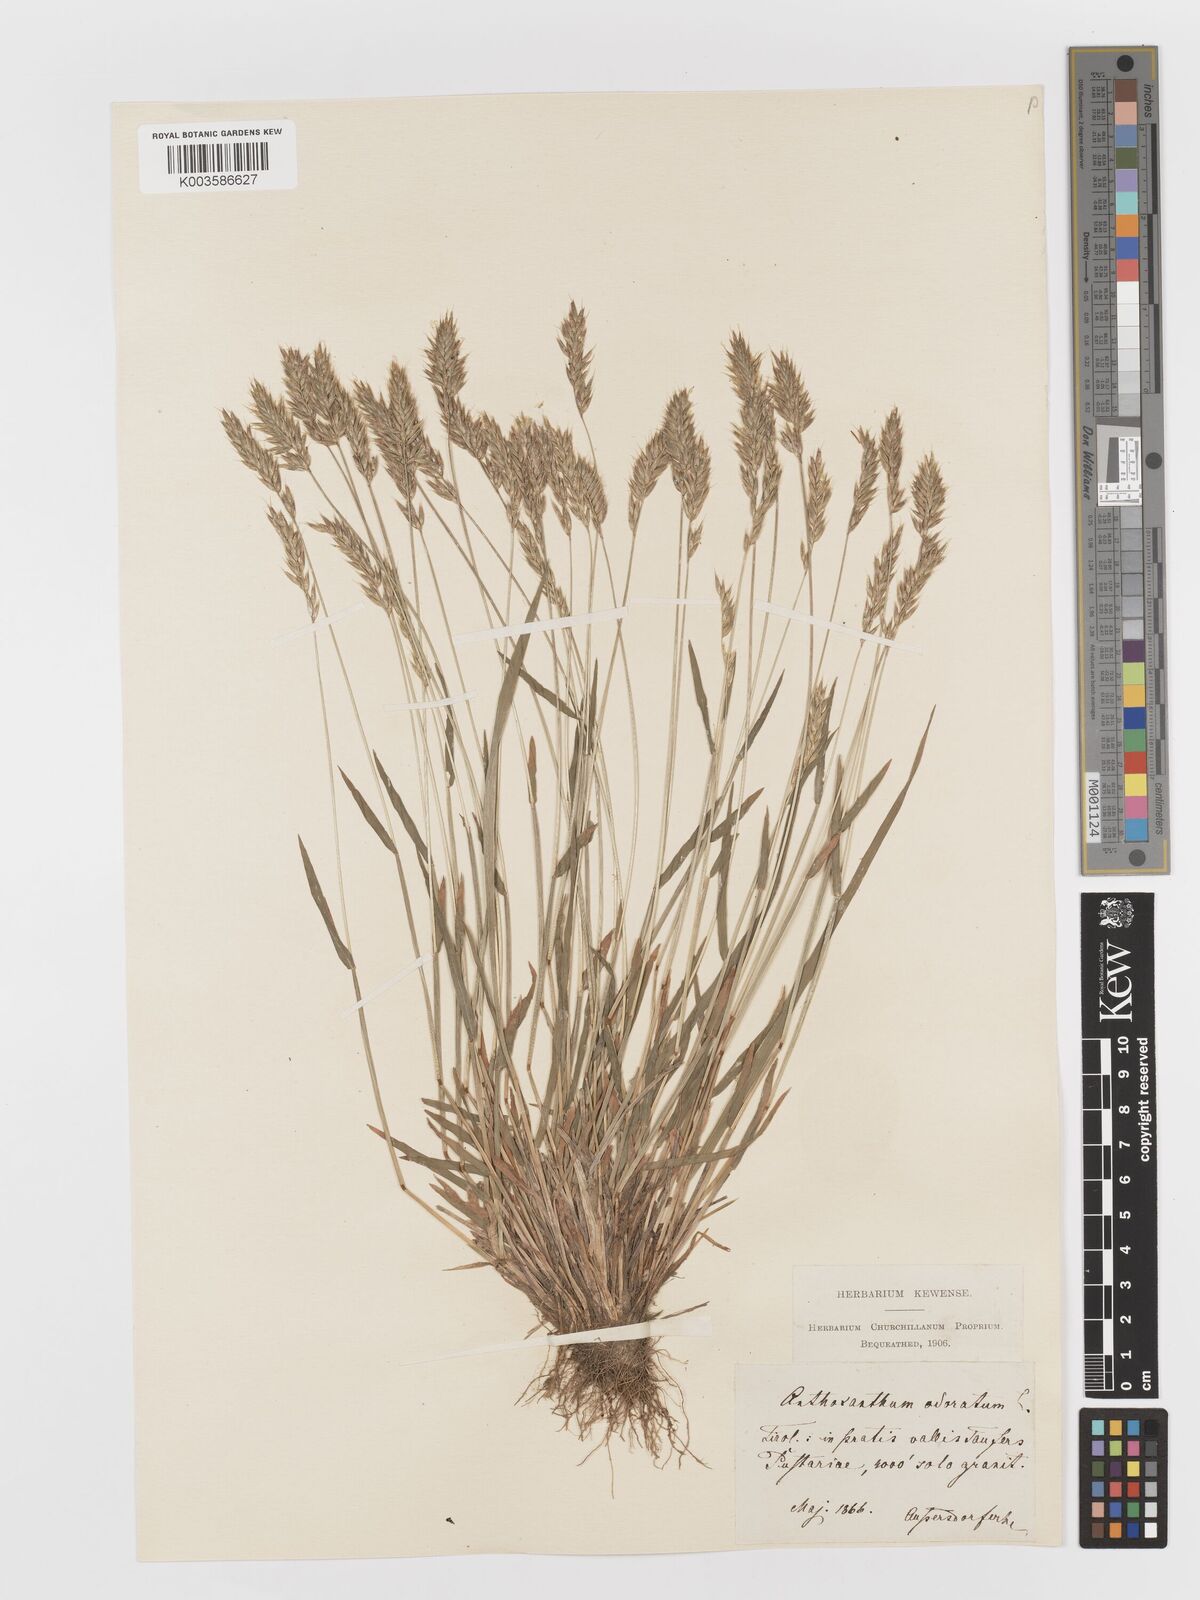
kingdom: Plantae
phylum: Tracheophyta
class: Liliopsida
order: Poales
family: Poaceae
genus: Anthoxanthum
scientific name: Anthoxanthum odoratum
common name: Sweet vernalgrass
